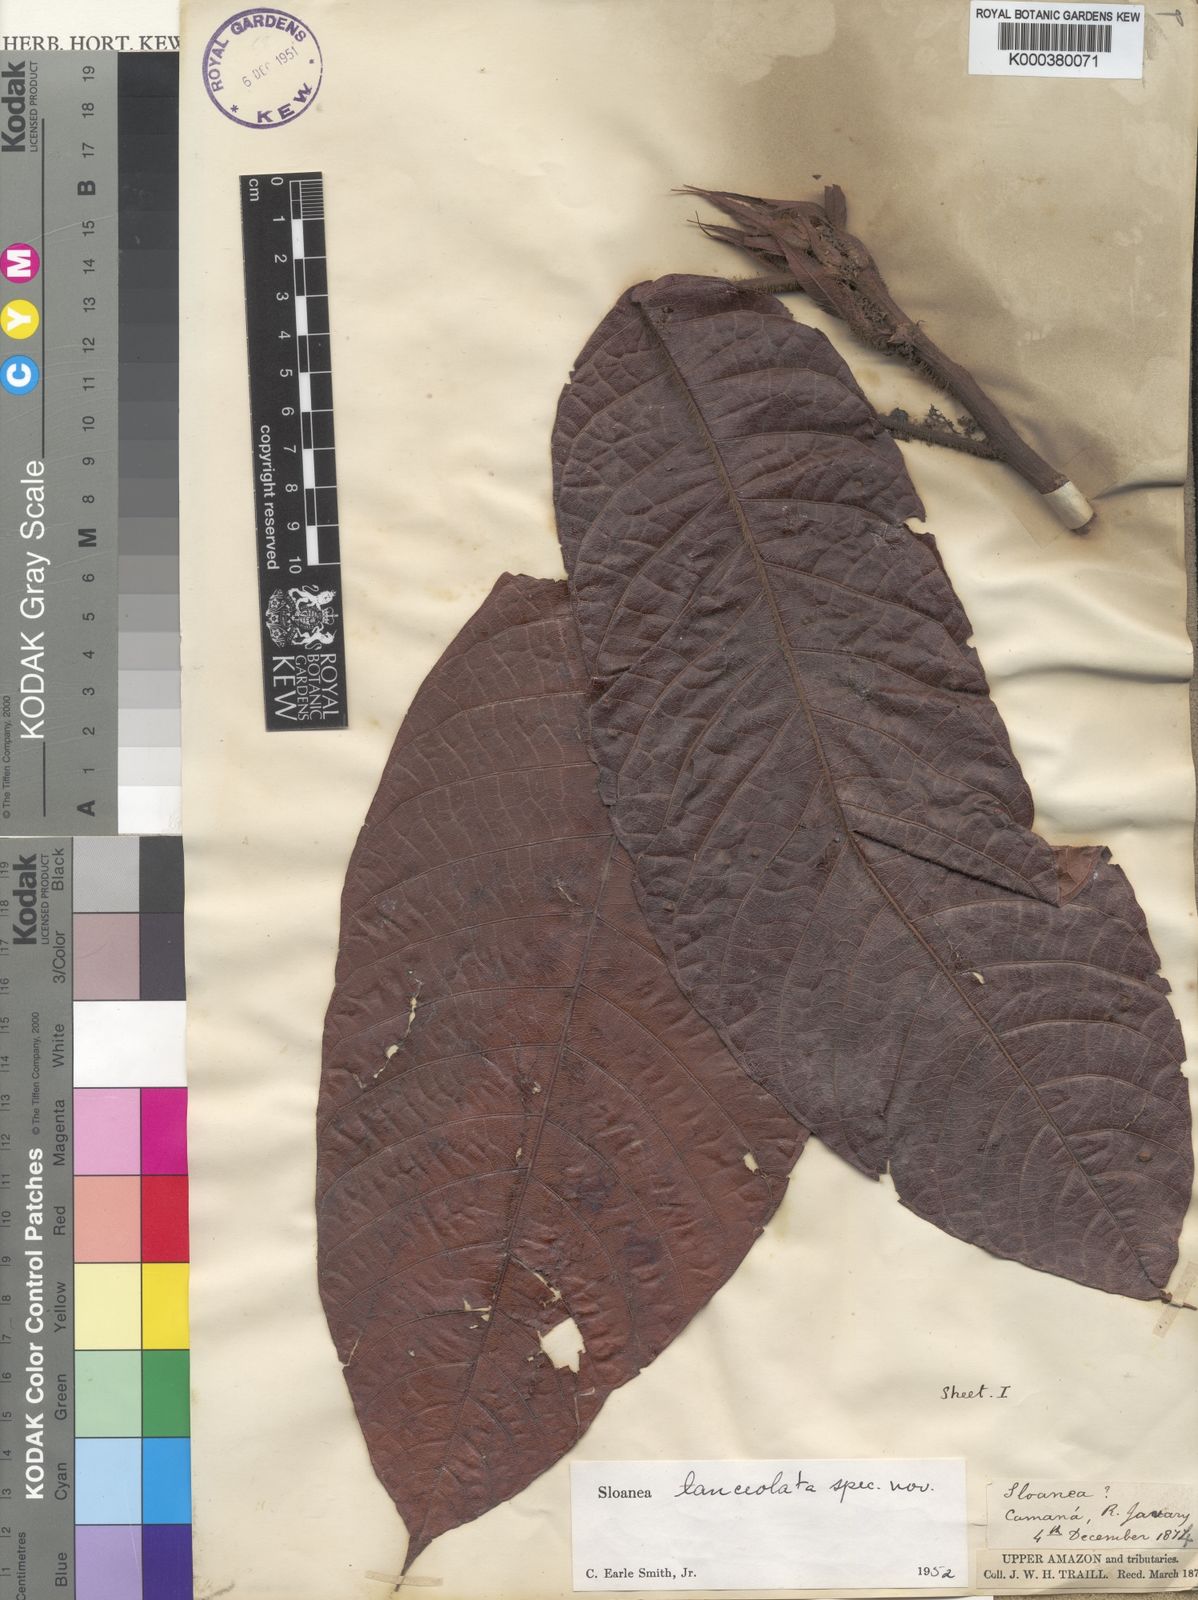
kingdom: Plantae
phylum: Tracheophyta
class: Magnoliopsida
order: Oxalidales
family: Elaeocarpaceae
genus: Sloanea
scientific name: Sloanea lanceolata
